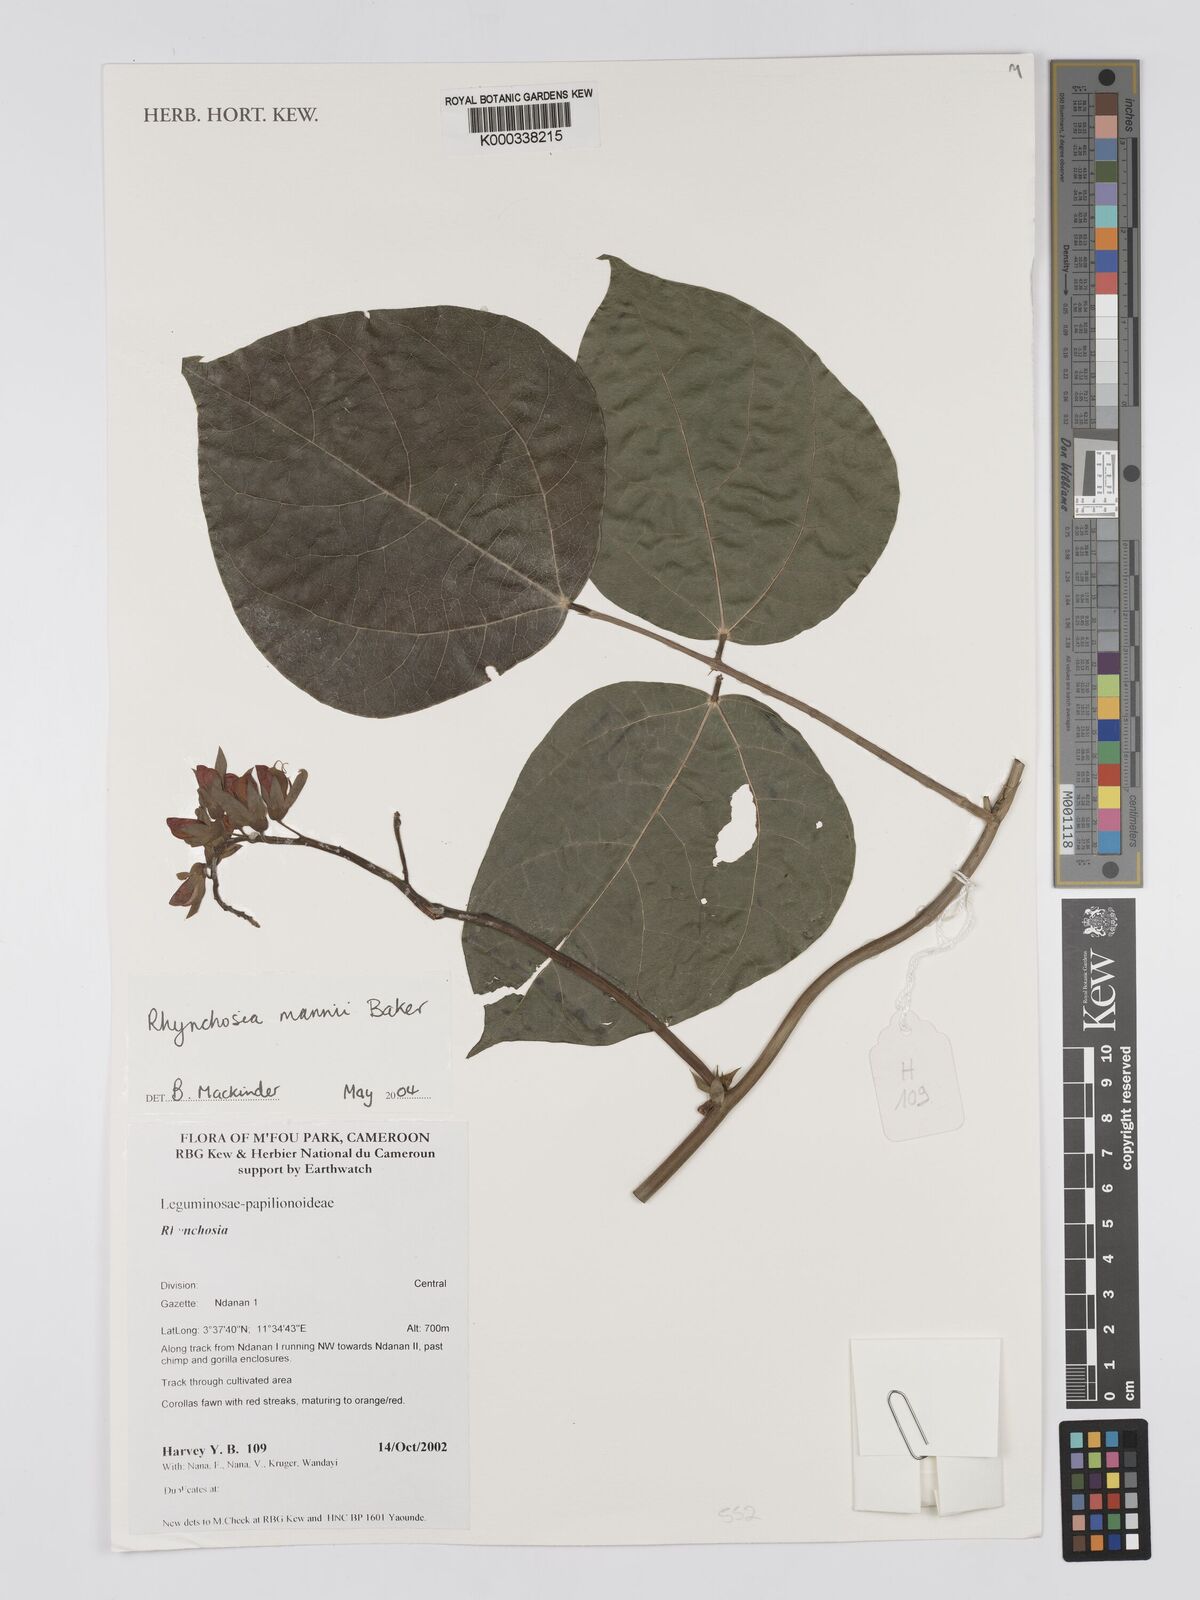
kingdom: Plantae
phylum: Tracheophyta
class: Magnoliopsida
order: Fabales
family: Fabaceae
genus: Rhynchosia
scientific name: Rhynchosia mannii
